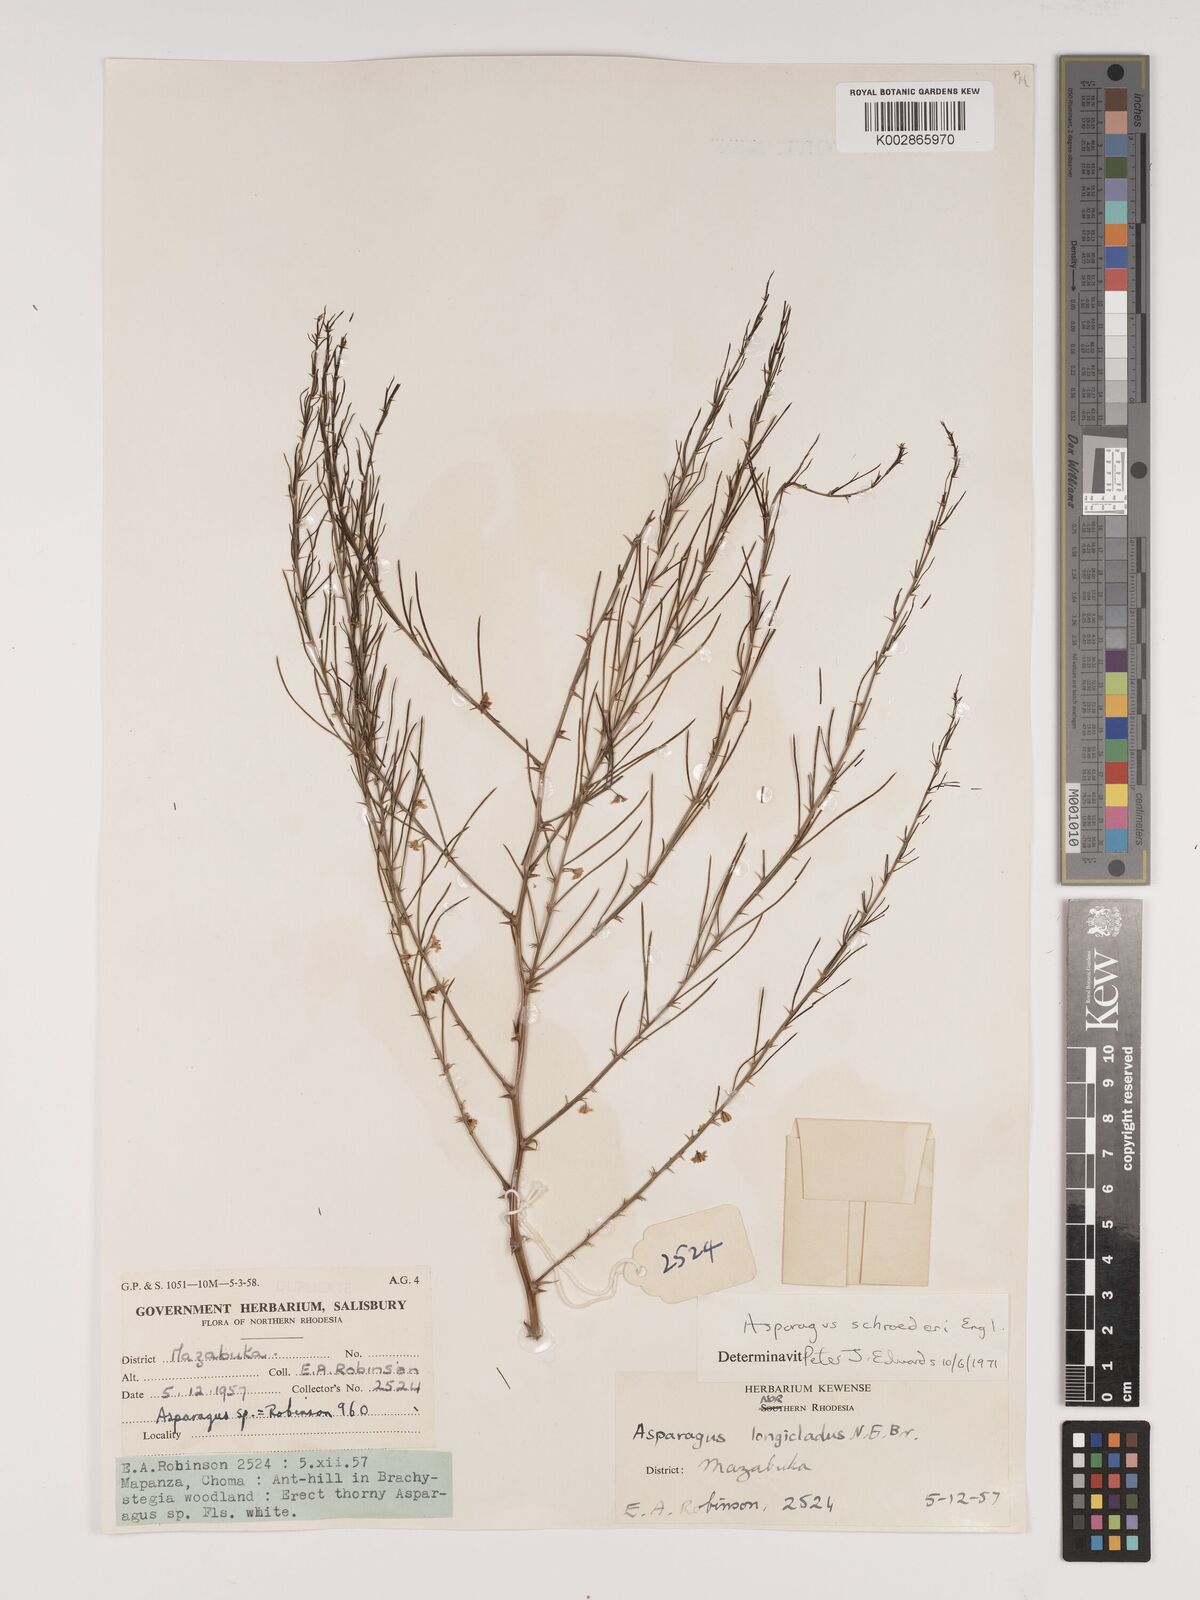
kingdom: Plantae
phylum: Tracheophyta
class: Liliopsida
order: Asparagales
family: Asparagaceae
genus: Asparagus
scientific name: Asparagus schroederi
